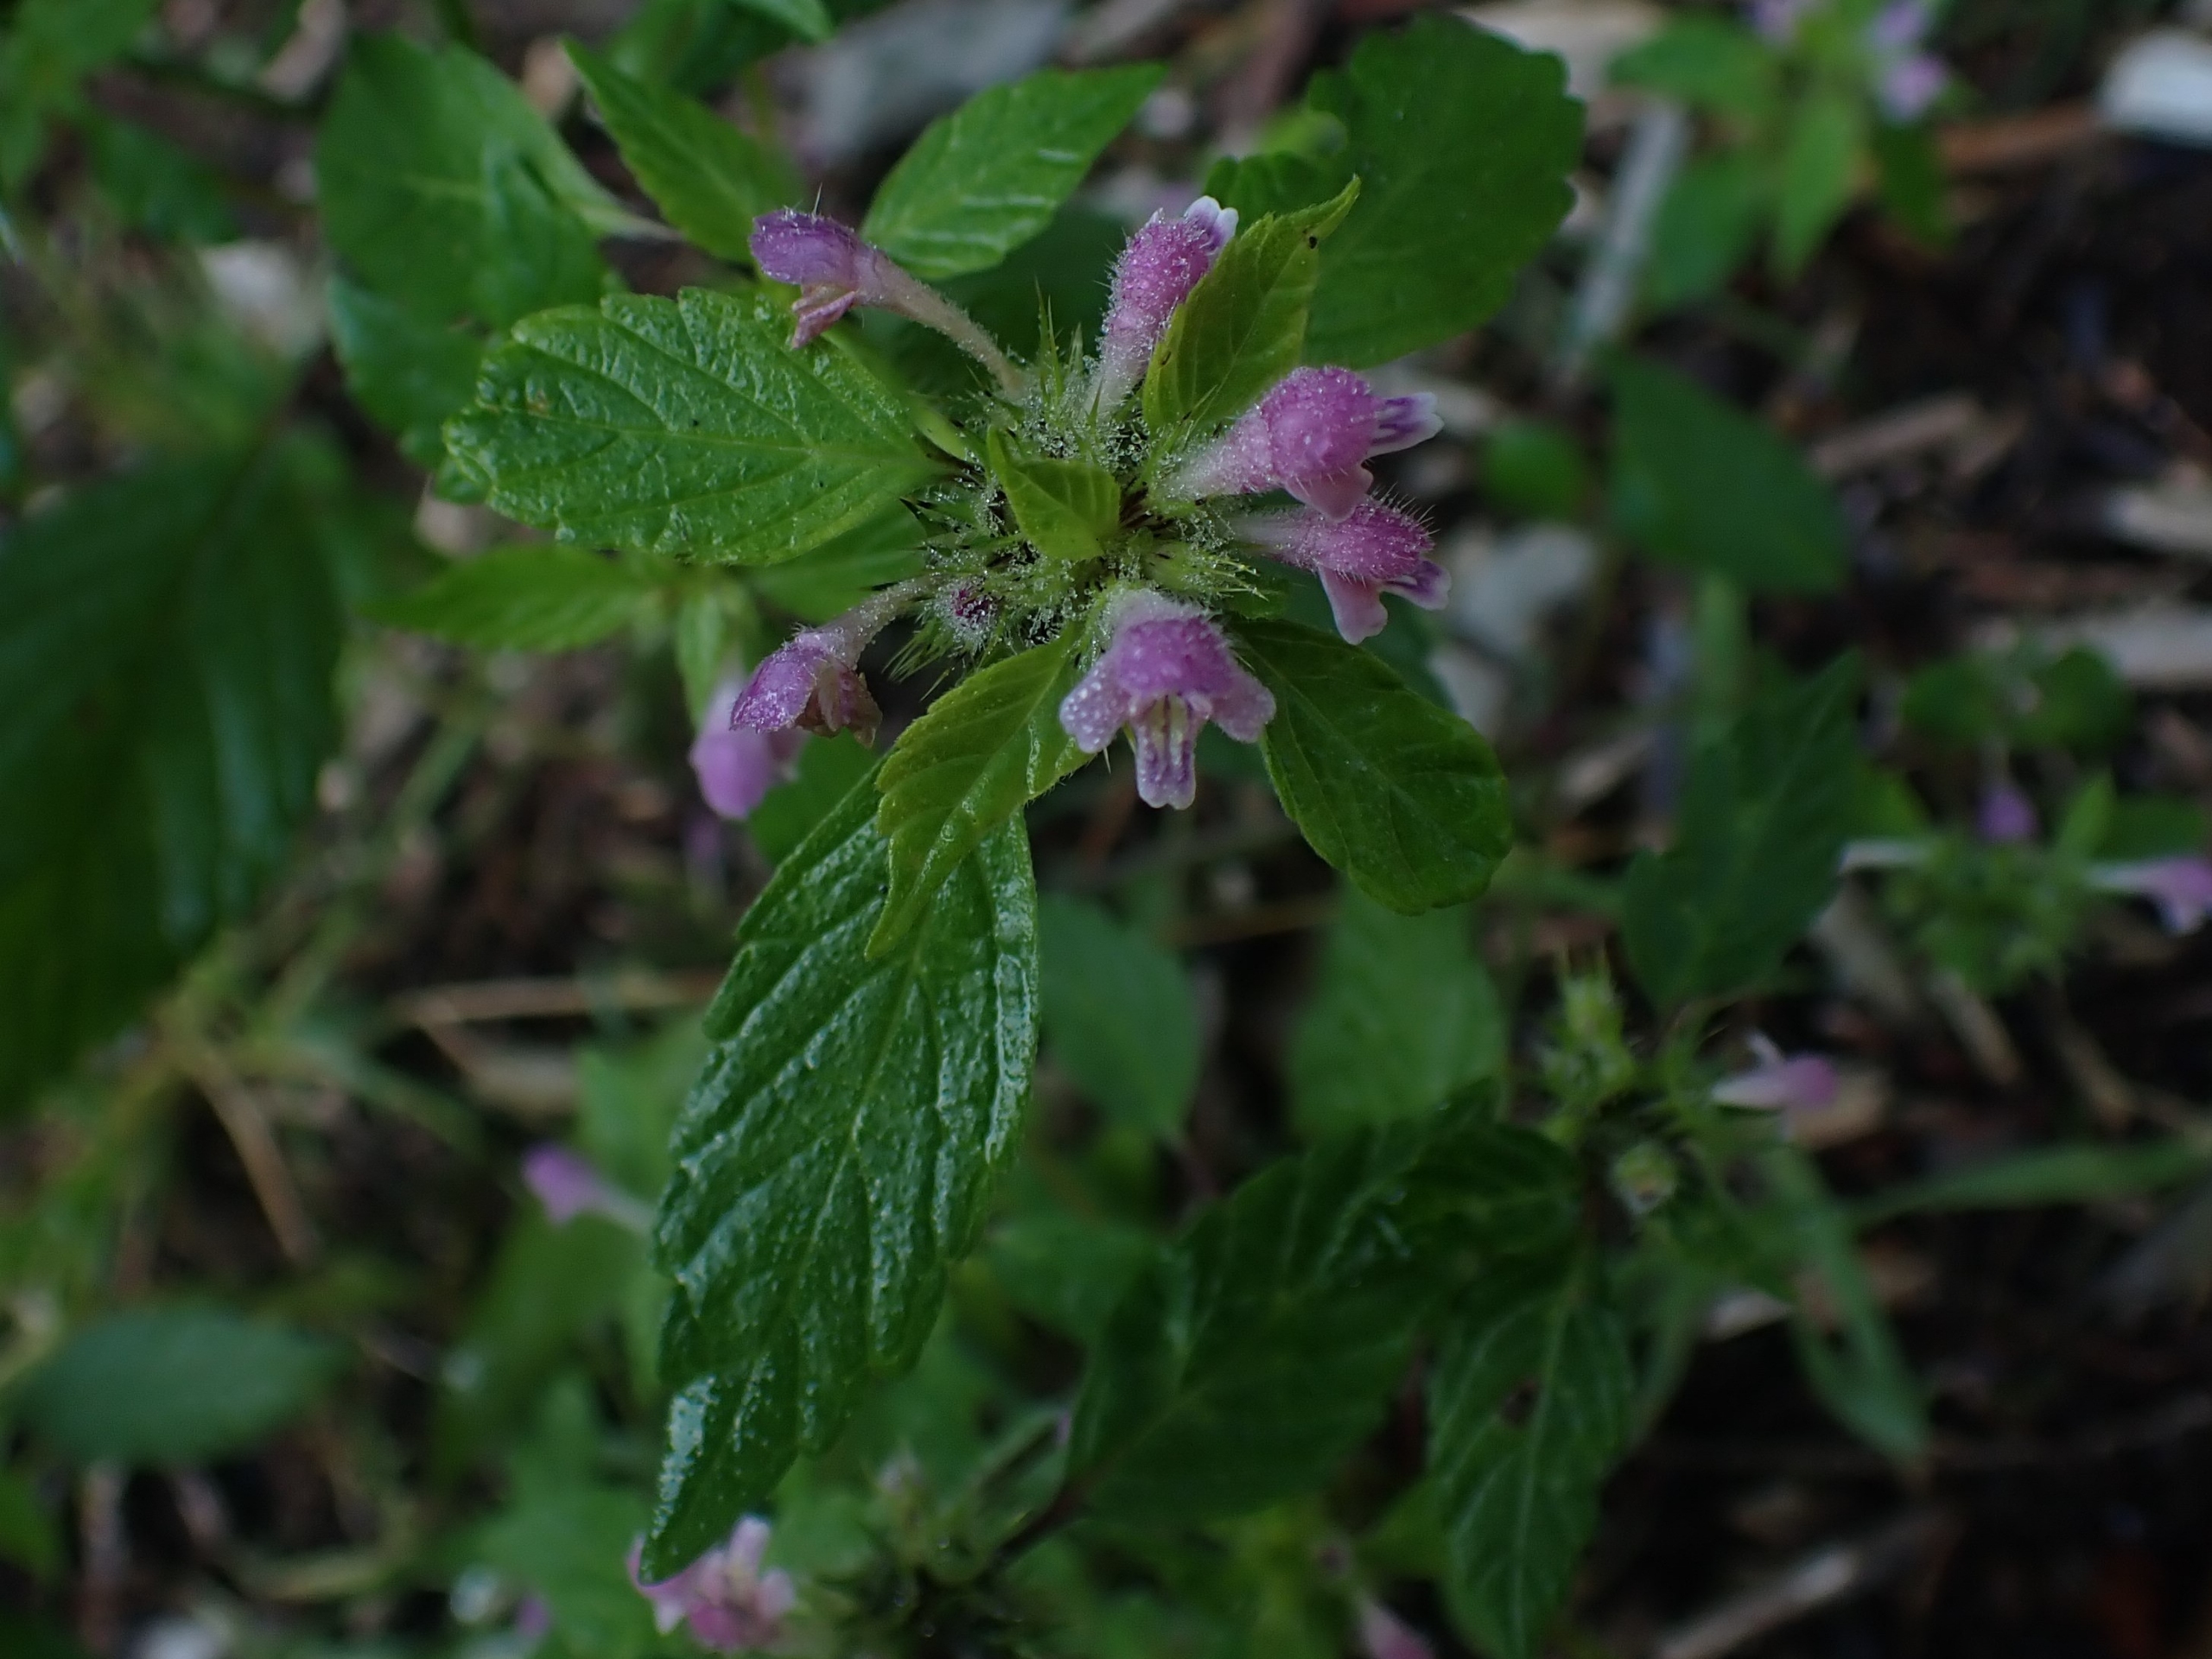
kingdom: Plantae
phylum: Tracheophyta
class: Magnoliopsida
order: Lamiales
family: Lamiaceae
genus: Galeopsis
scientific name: Galeopsis bifida
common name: Skov-hanekro
